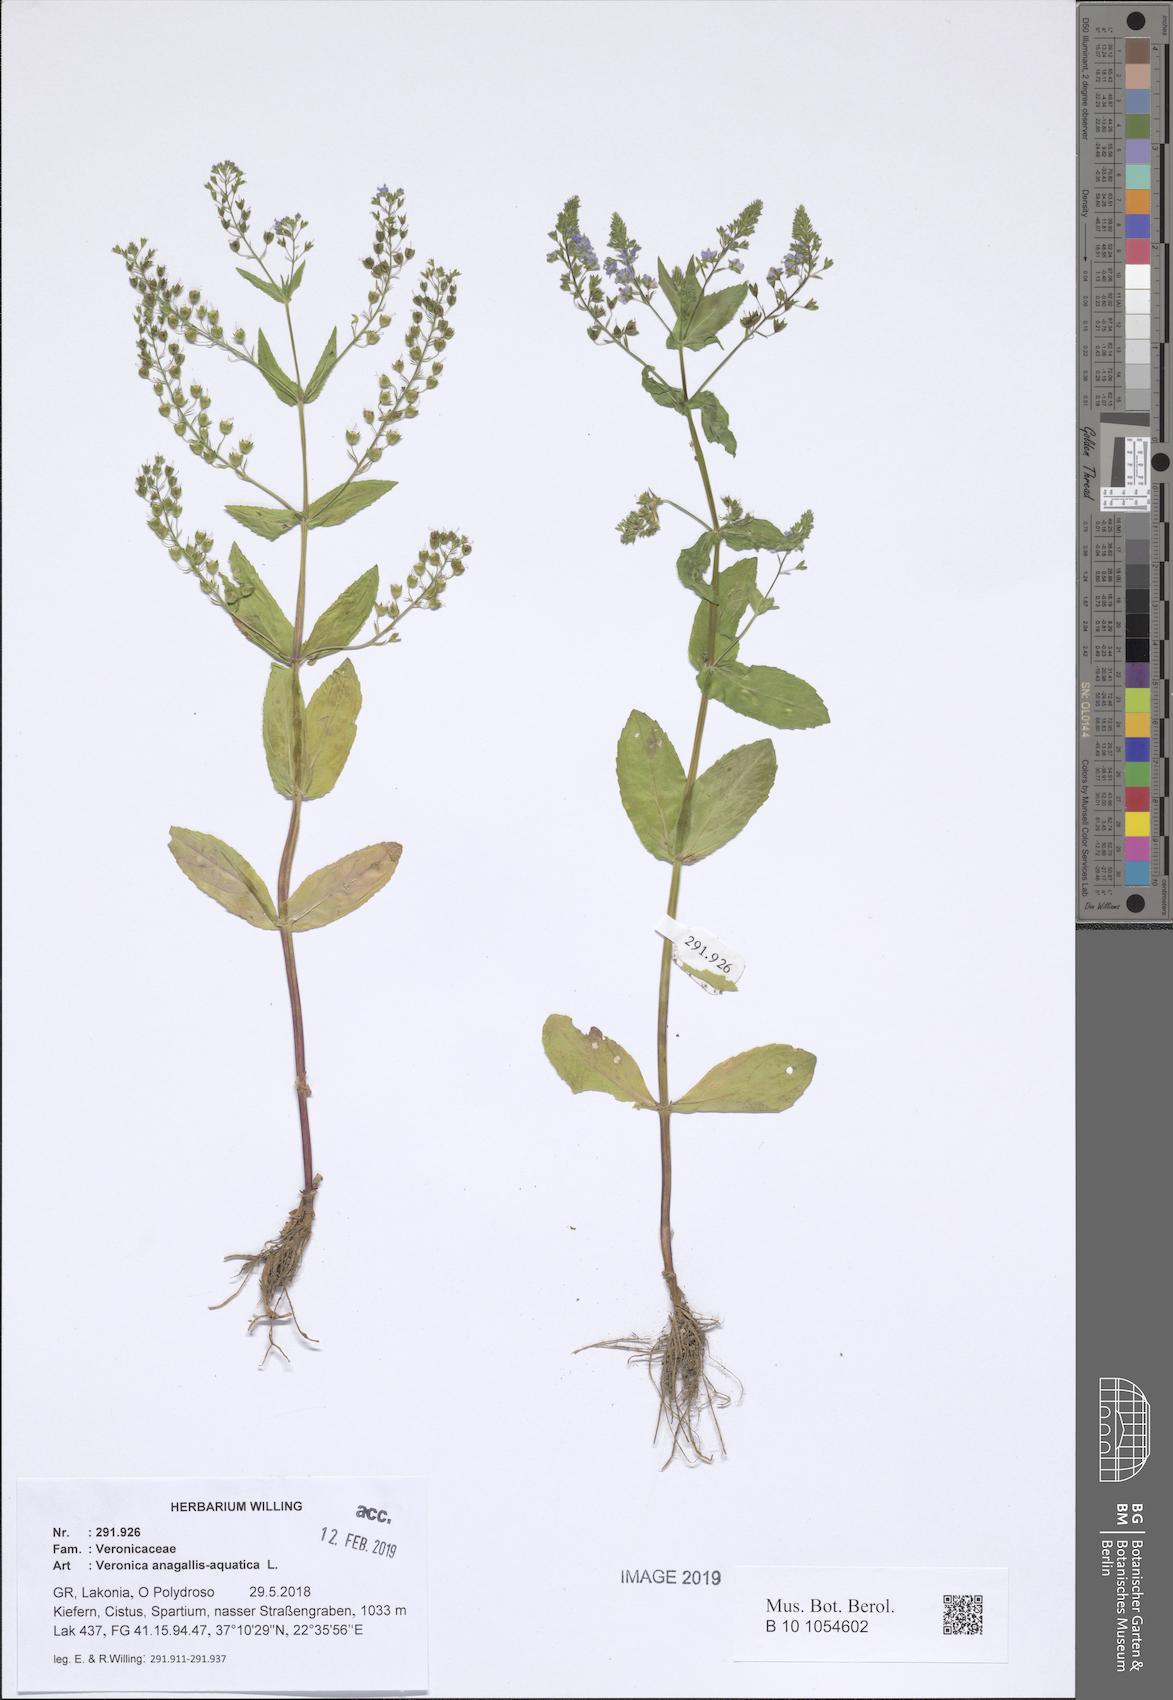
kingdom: Plantae
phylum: Tracheophyta
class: Magnoliopsida
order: Lamiales
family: Plantaginaceae
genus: Veronica
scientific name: Veronica anagallis-aquatica
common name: Water speedwell
